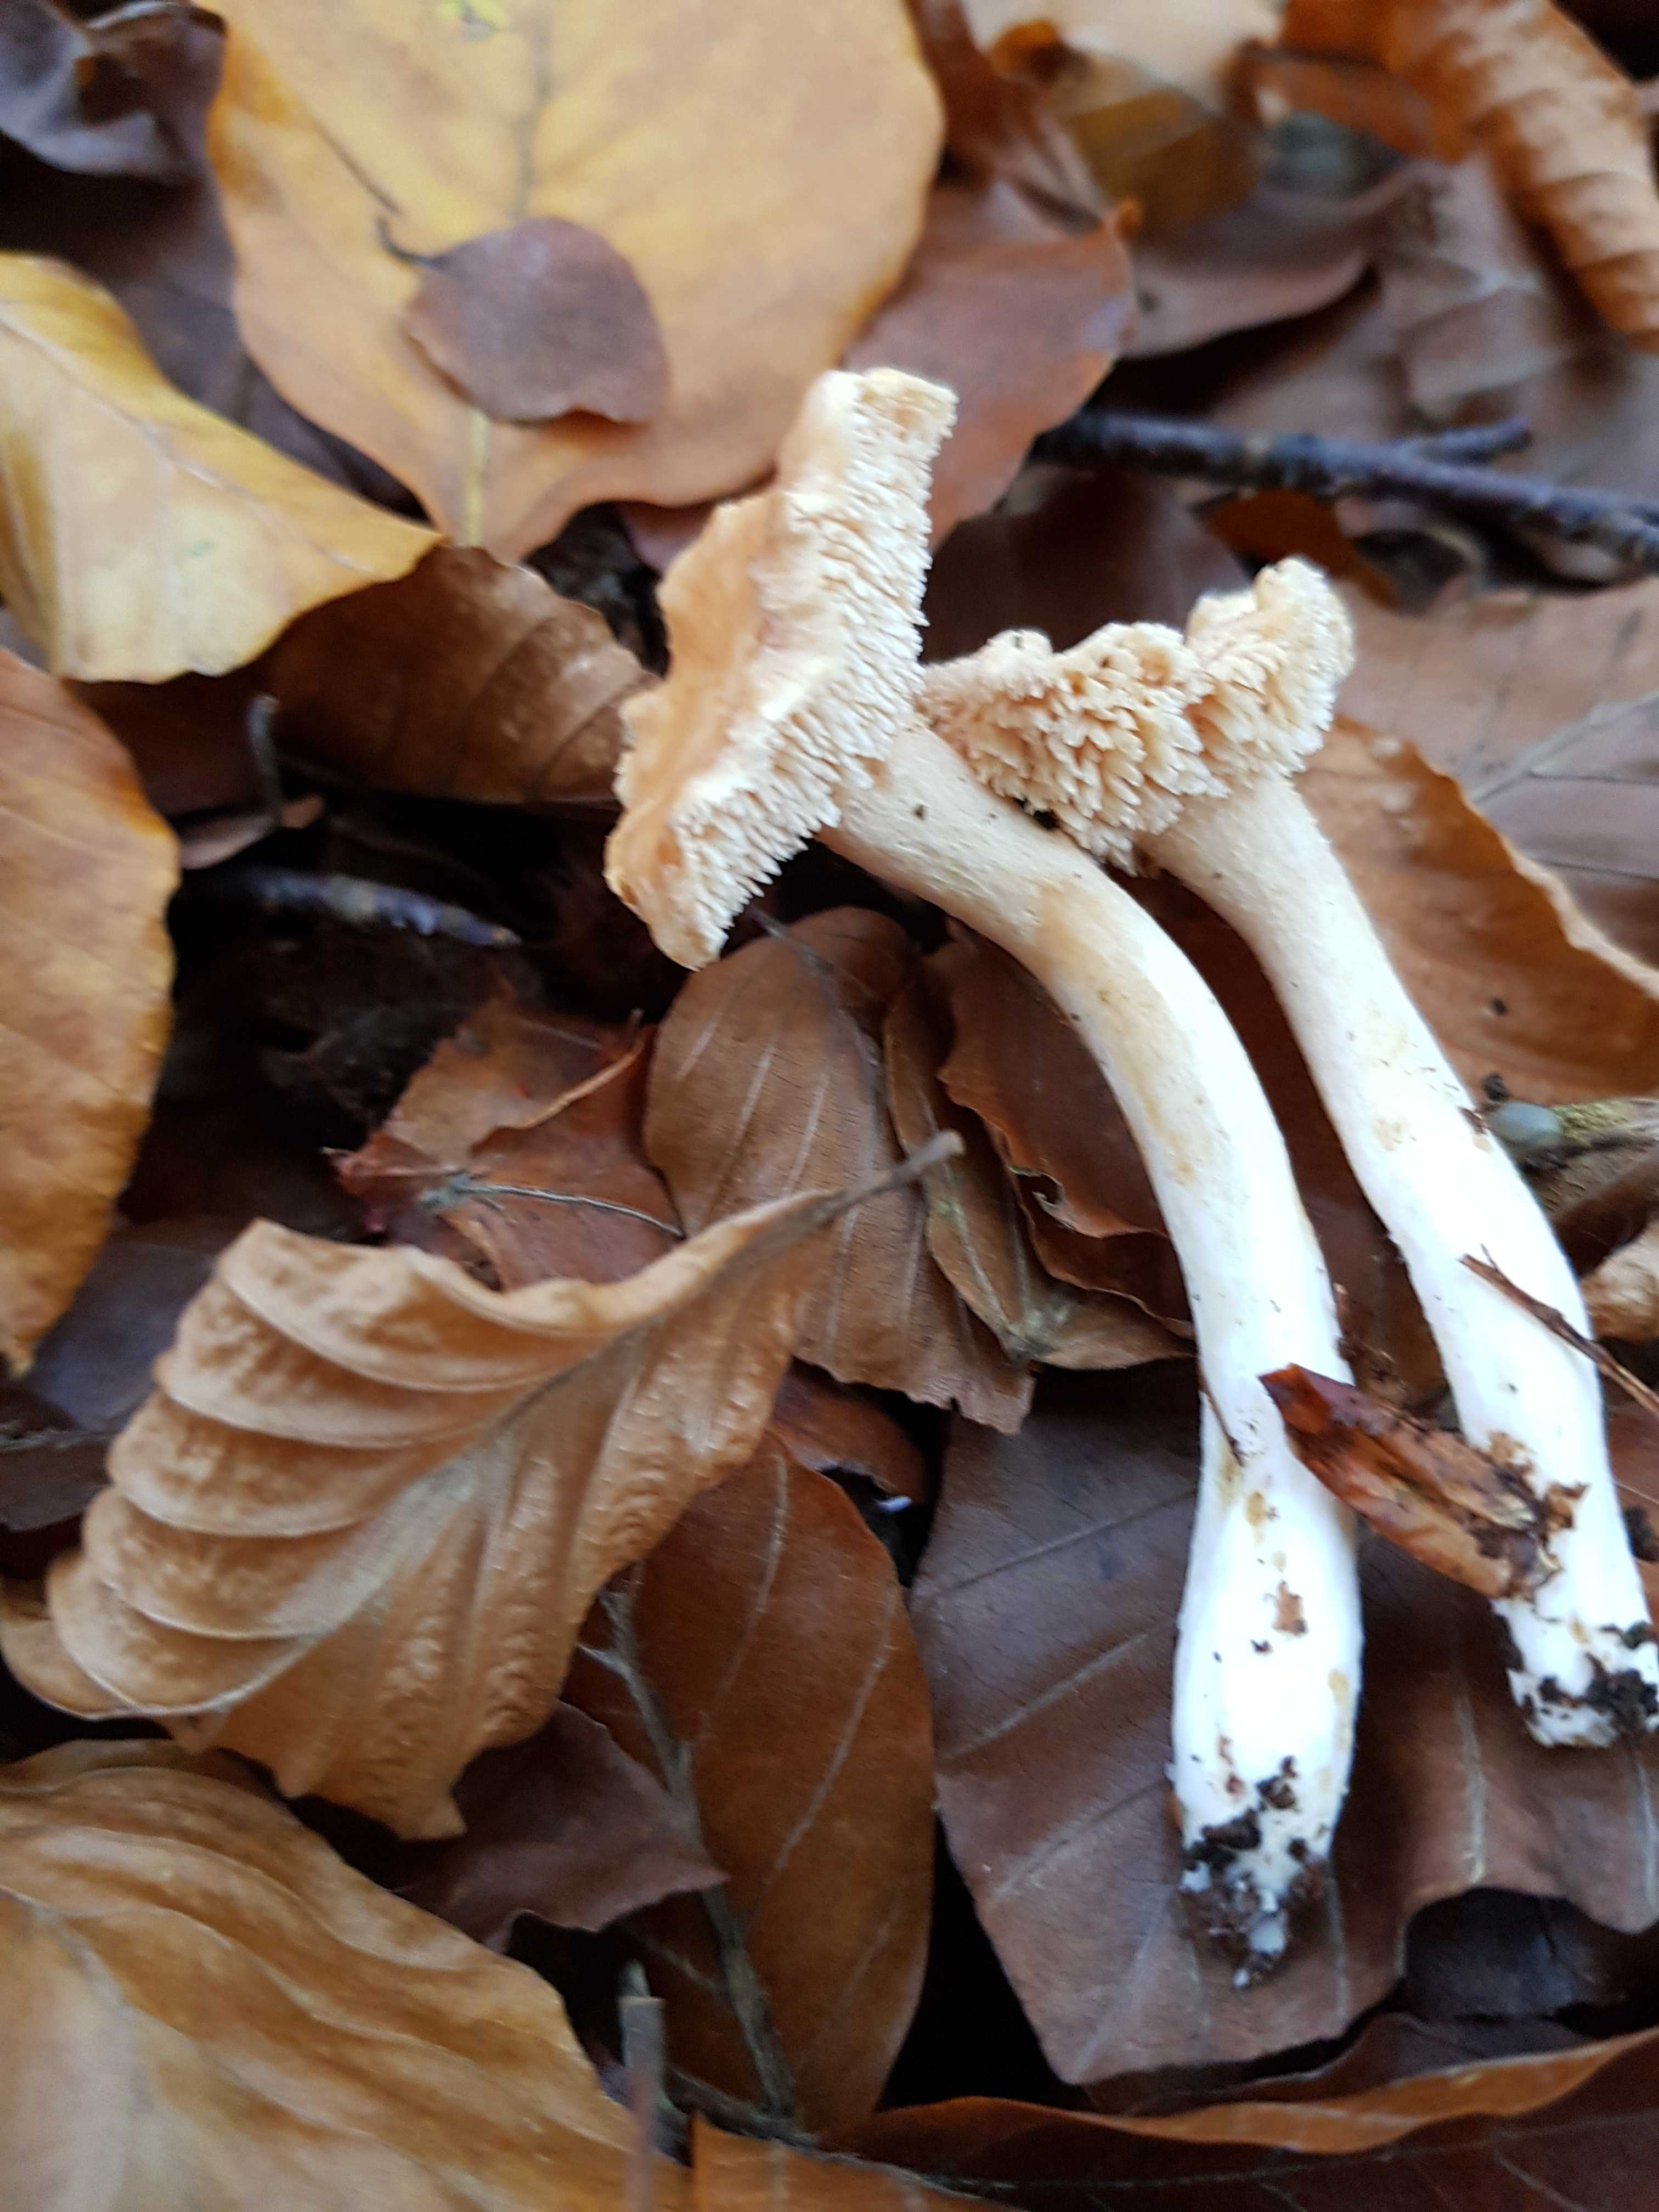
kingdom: Fungi
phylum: Basidiomycota
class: Agaricomycetes
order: Cantharellales
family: Hydnaceae
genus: Hydnum
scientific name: Hydnum
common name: pigsvamp
